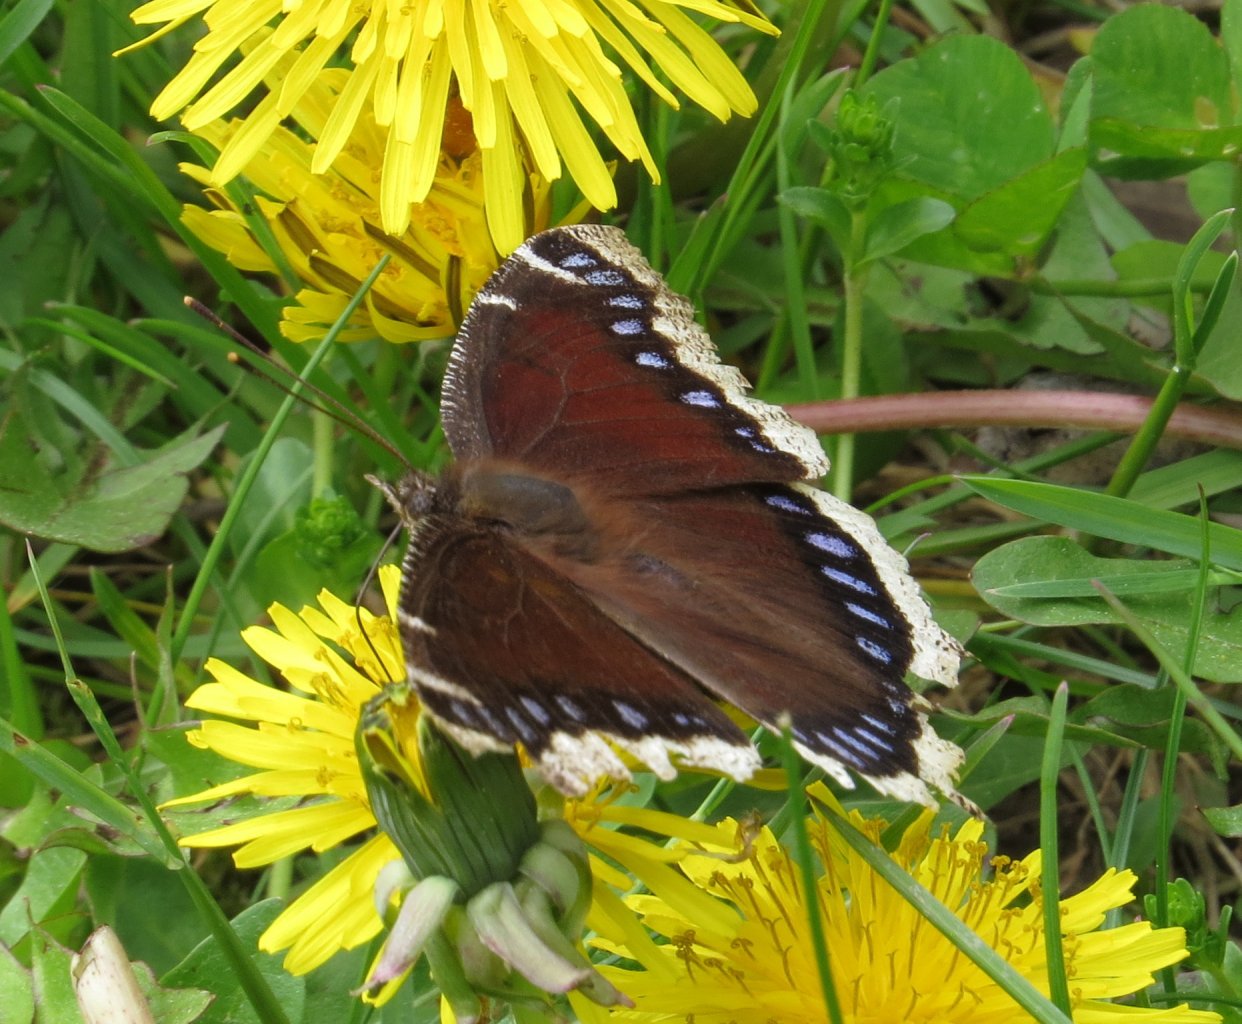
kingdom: Animalia
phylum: Arthropoda
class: Insecta
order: Lepidoptera
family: Nymphalidae
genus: Nymphalis
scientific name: Nymphalis antiopa
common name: Mourning Cloak
